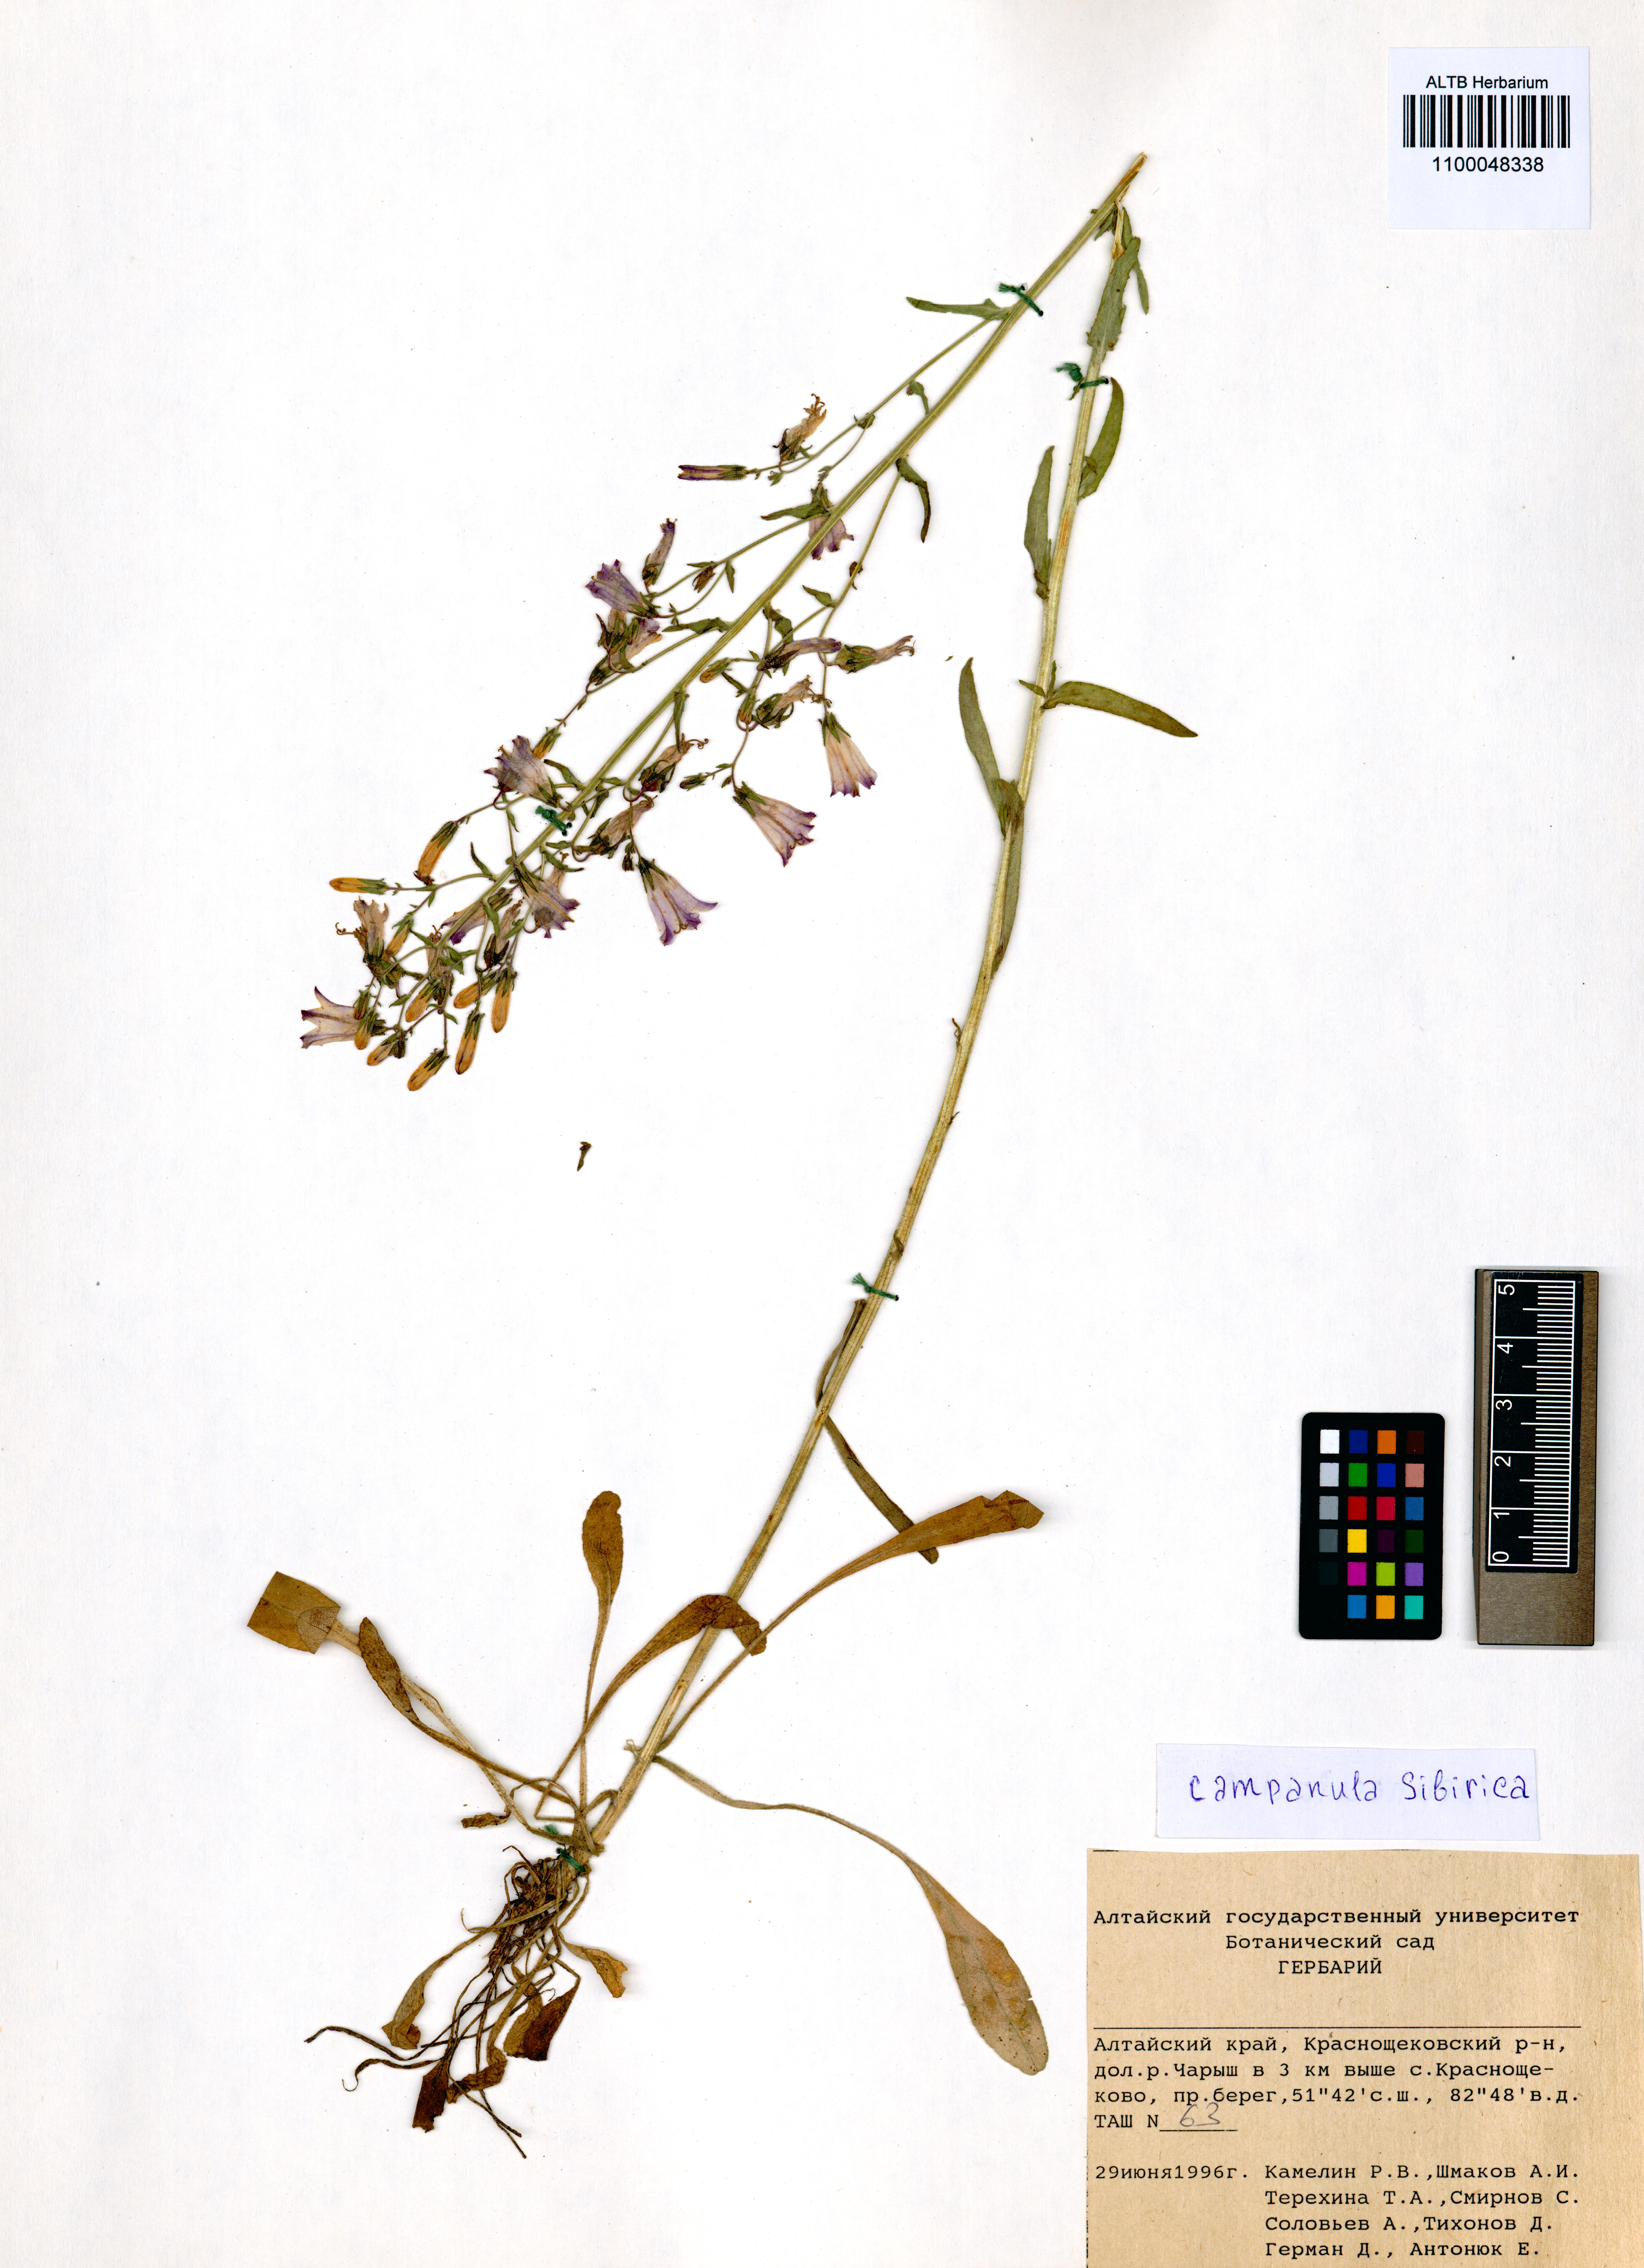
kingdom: Plantae
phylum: Tracheophyta
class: Magnoliopsida
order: Asterales
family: Campanulaceae
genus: Campanula
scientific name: Campanula sibirica
